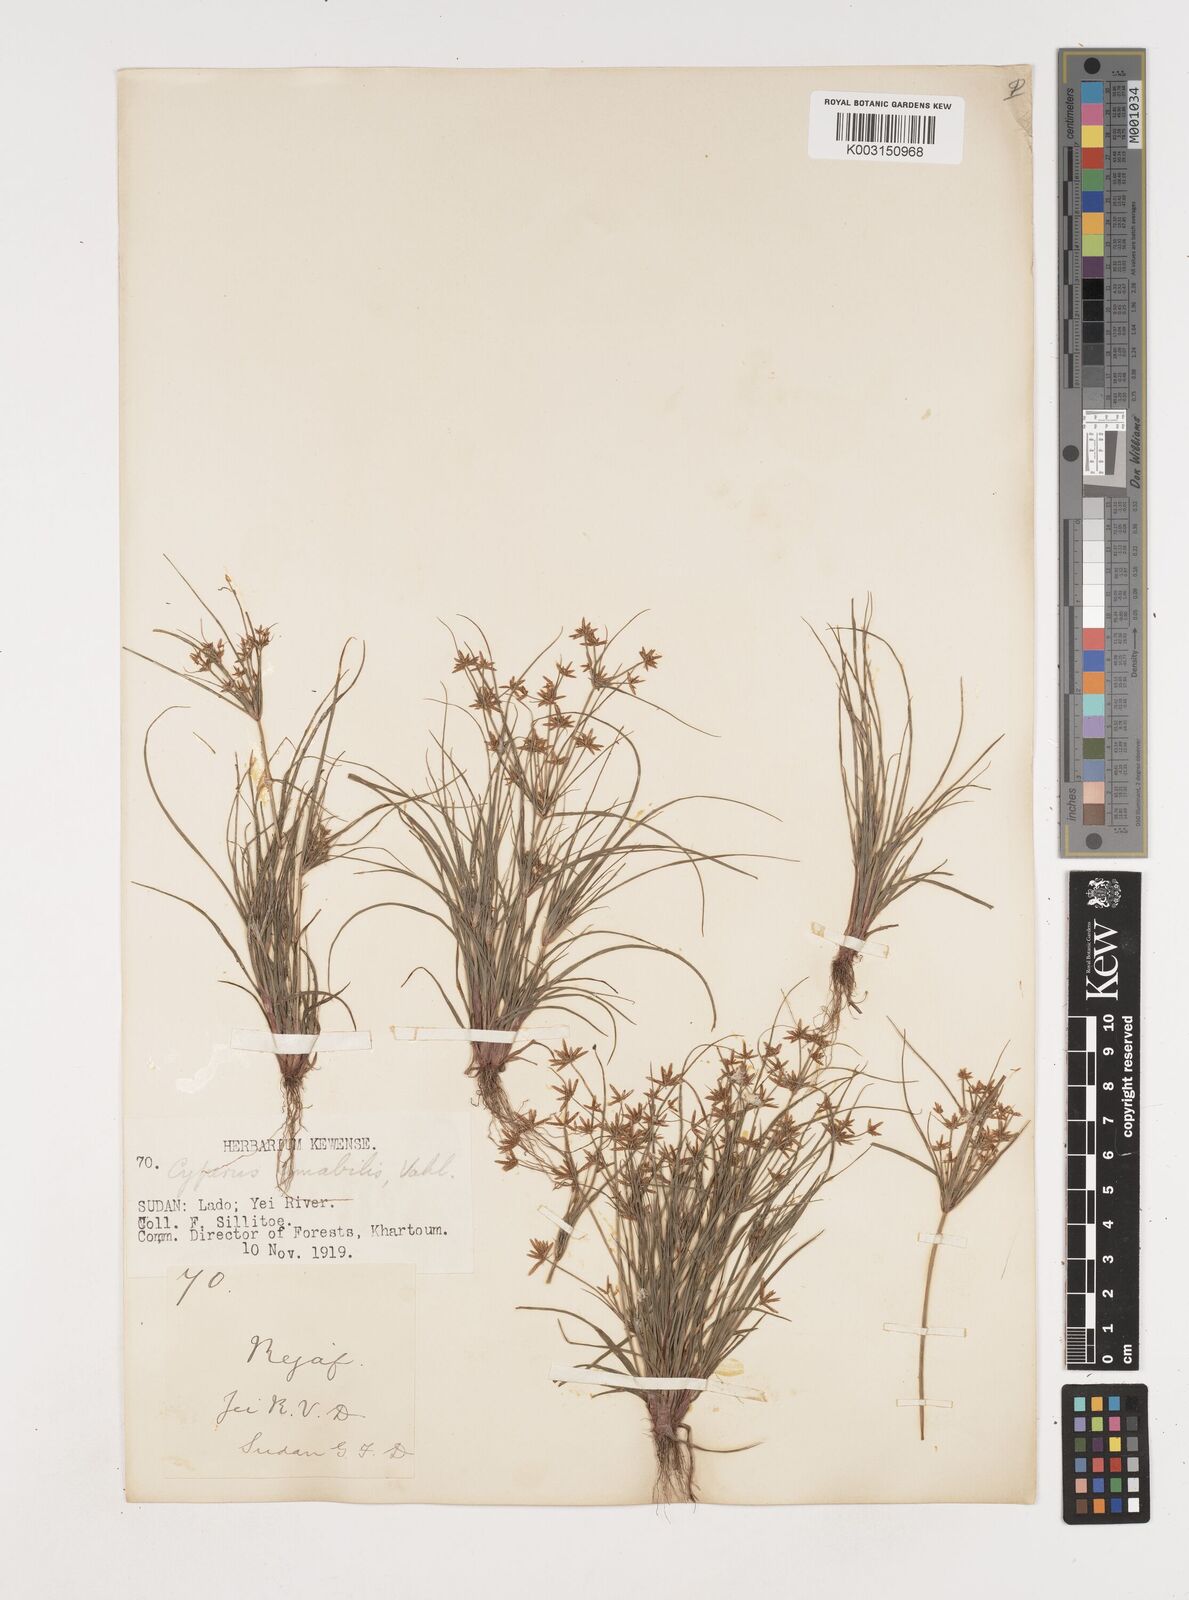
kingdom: Plantae
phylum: Tracheophyta
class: Liliopsida
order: Poales
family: Cyperaceae
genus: Cyperus
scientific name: Cyperus amabilis
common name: Foothill flat sedge
